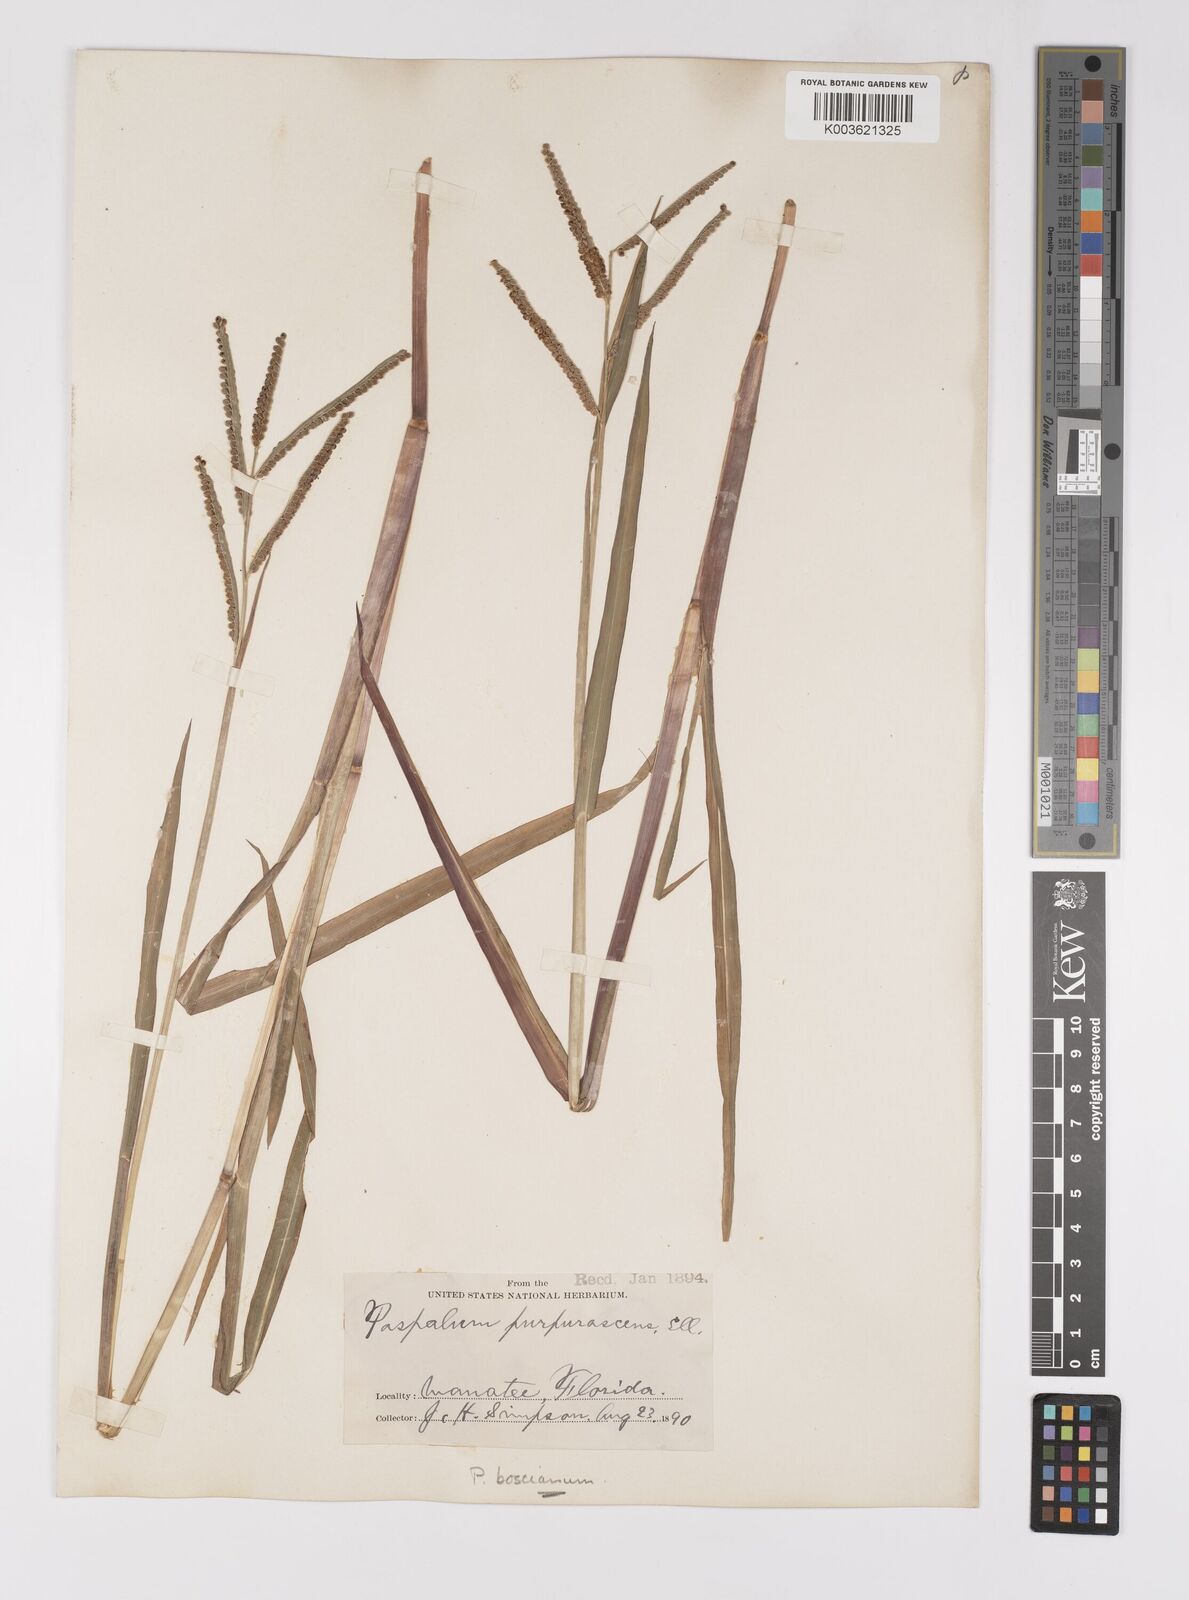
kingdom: Plantae
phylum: Tracheophyta
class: Liliopsida
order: Poales
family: Poaceae
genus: Paspalum
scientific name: Paspalum scrobiculatum
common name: Kodo millet
